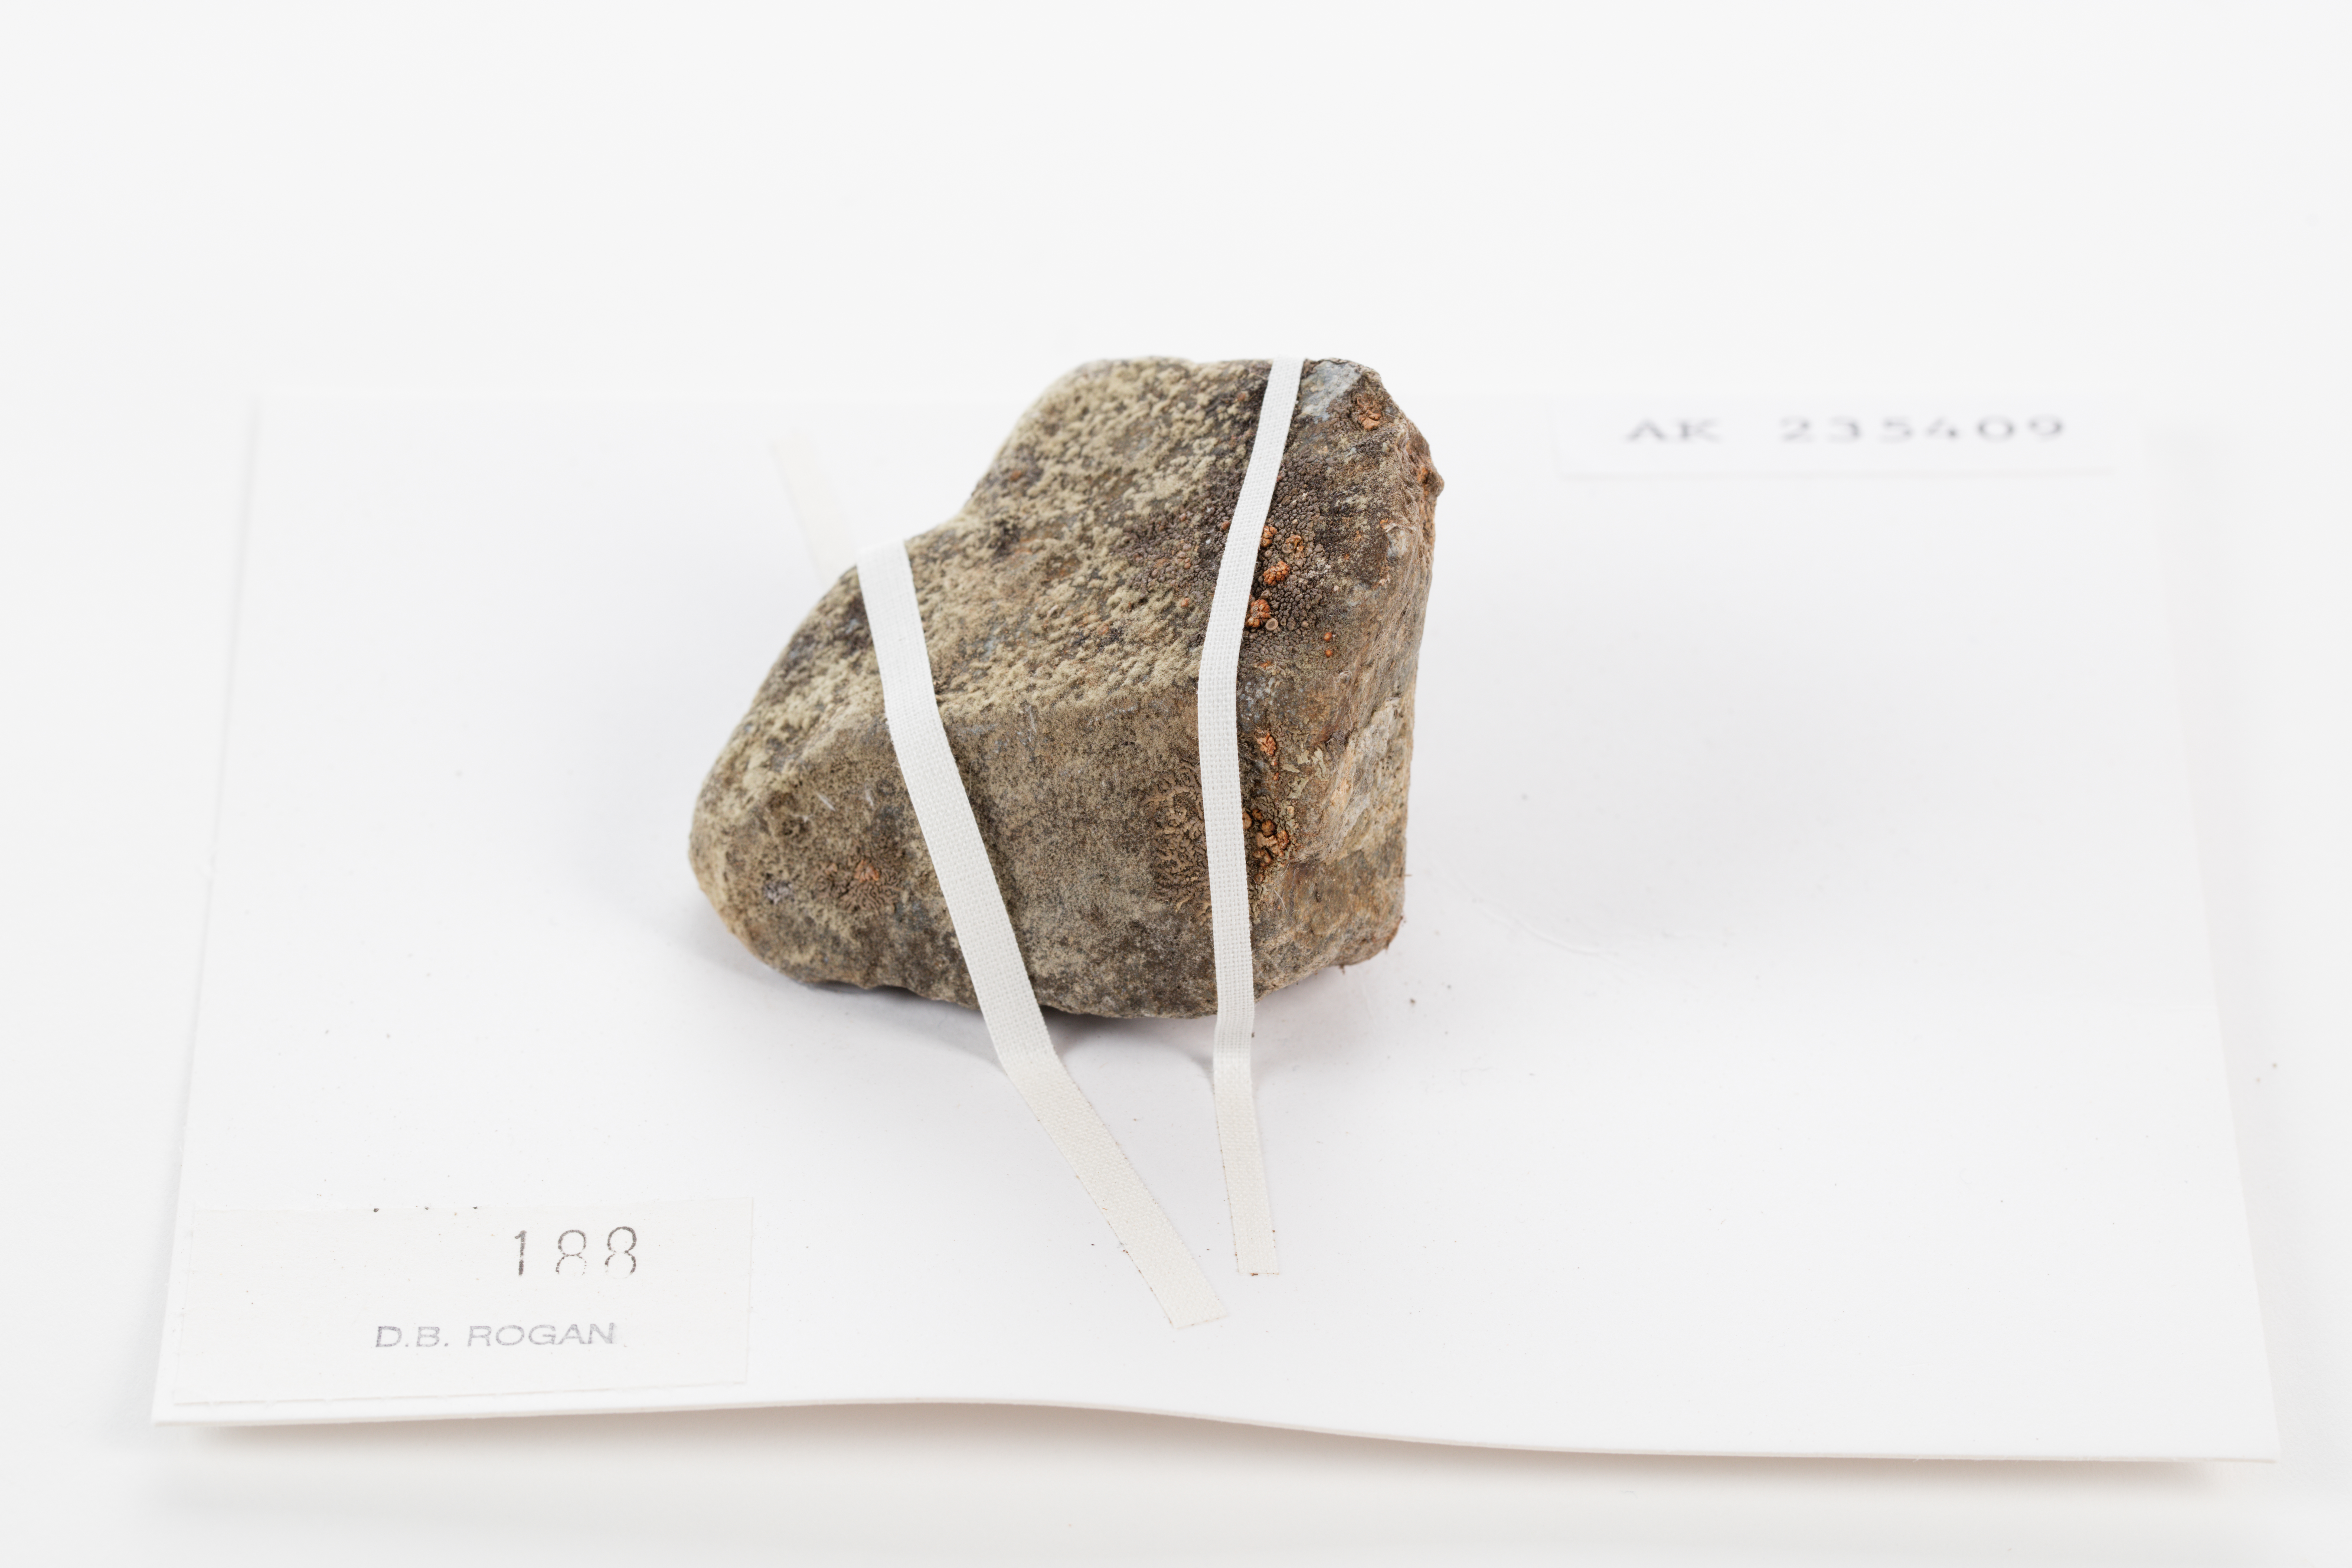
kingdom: Plantae
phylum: Chlorophyta
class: Ulvophyceae
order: Trentepohliales
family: Trentepohliaceae
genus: Trentepohlia
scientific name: Trentepohlia aurea
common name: Orange rock hair
